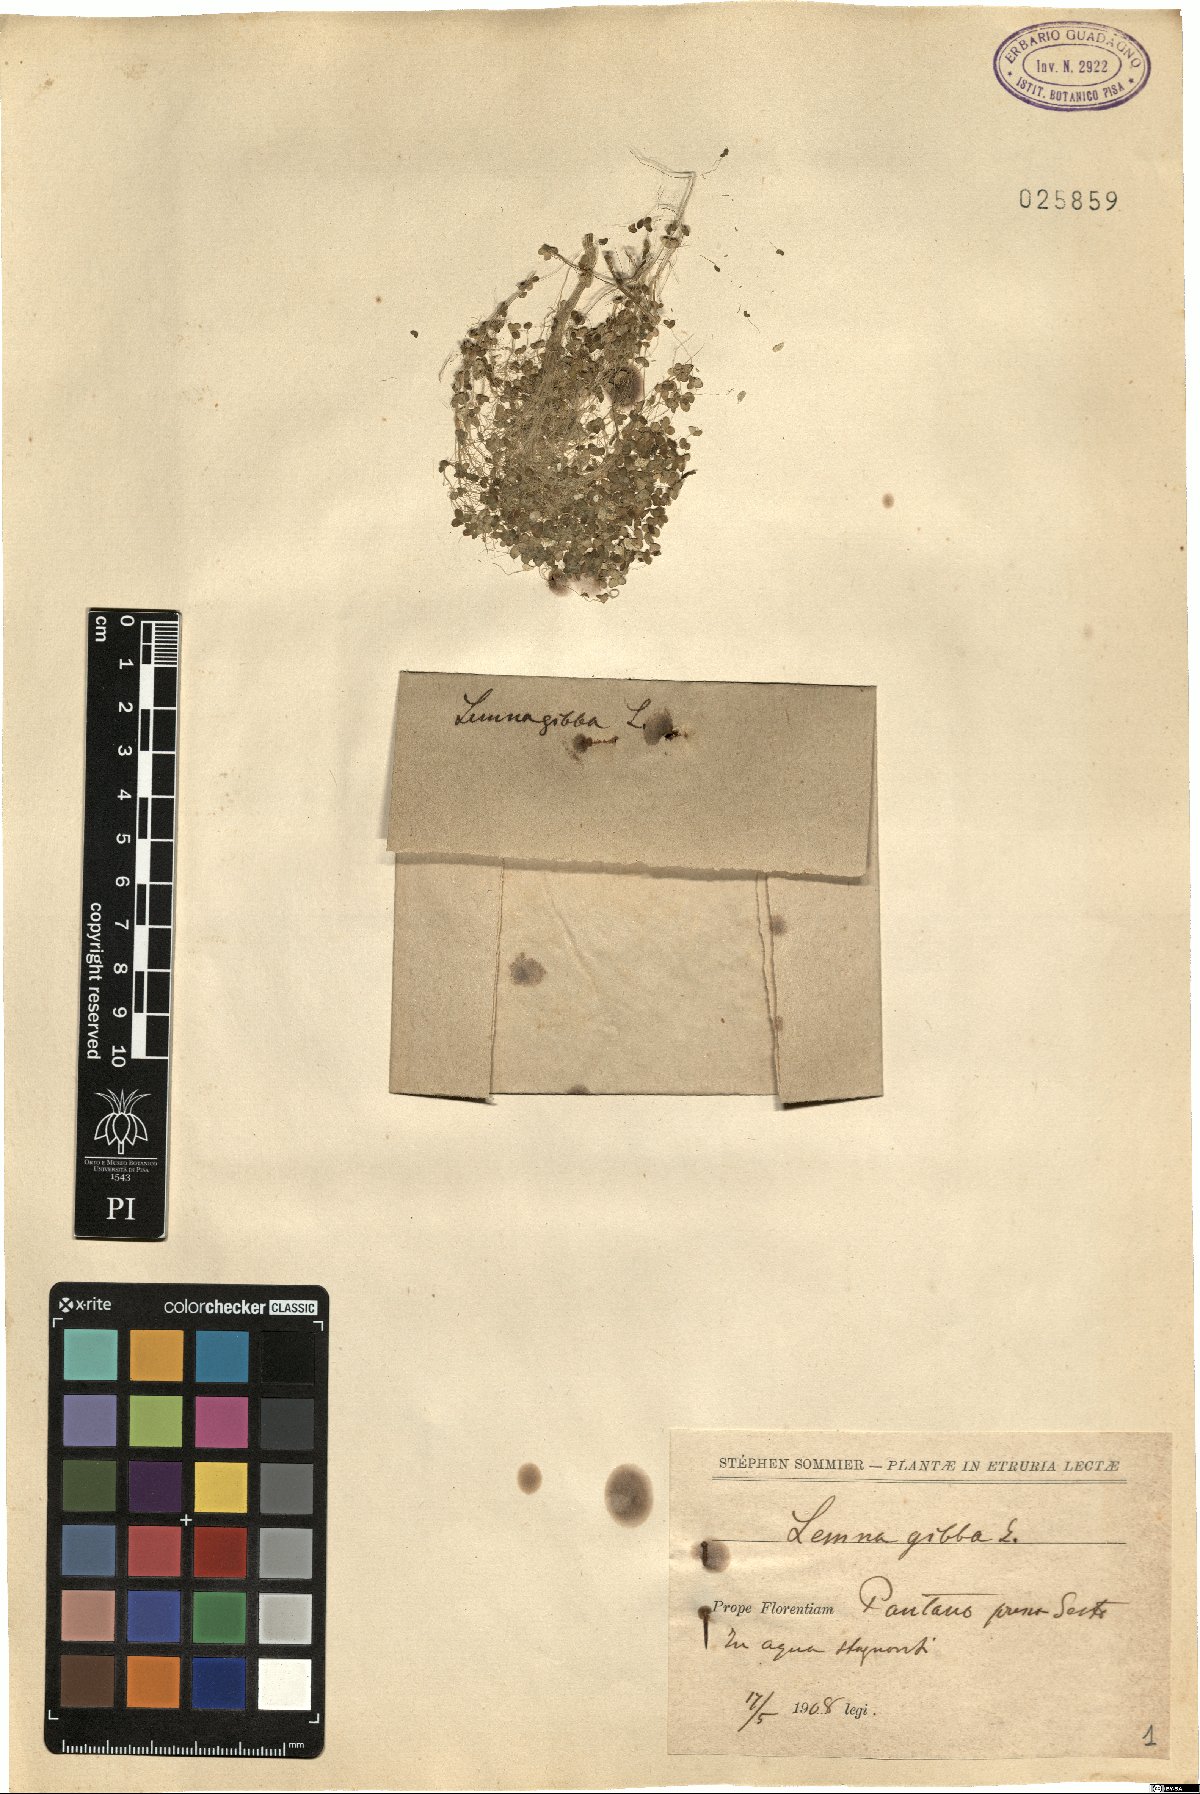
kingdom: Plantae
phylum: Tracheophyta
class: Liliopsida
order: Alismatales
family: Araceae
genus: Lemna
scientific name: Lemna gibba
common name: Fat duckweed
